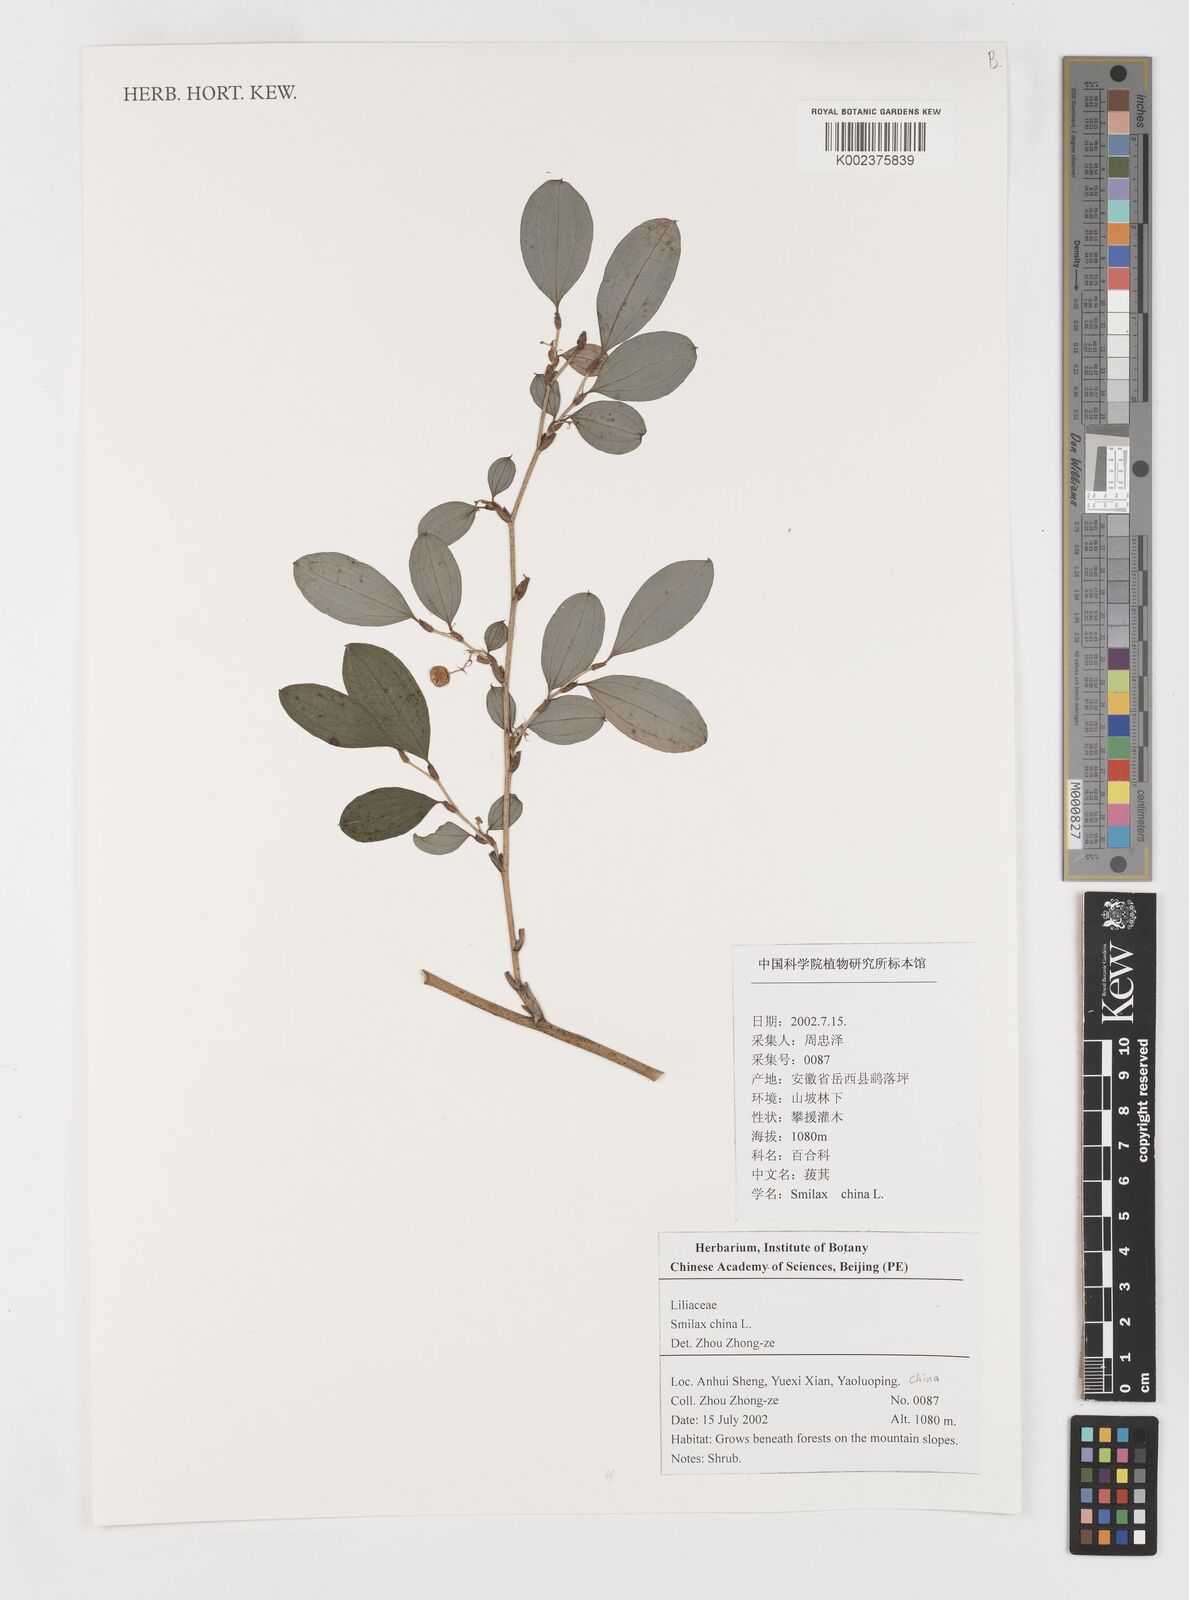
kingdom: Plantae
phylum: Tracheophyta
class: Liliopsida
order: Liliales
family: Smilacaceae
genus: Smilax
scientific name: Smilax china
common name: Chinaroot
